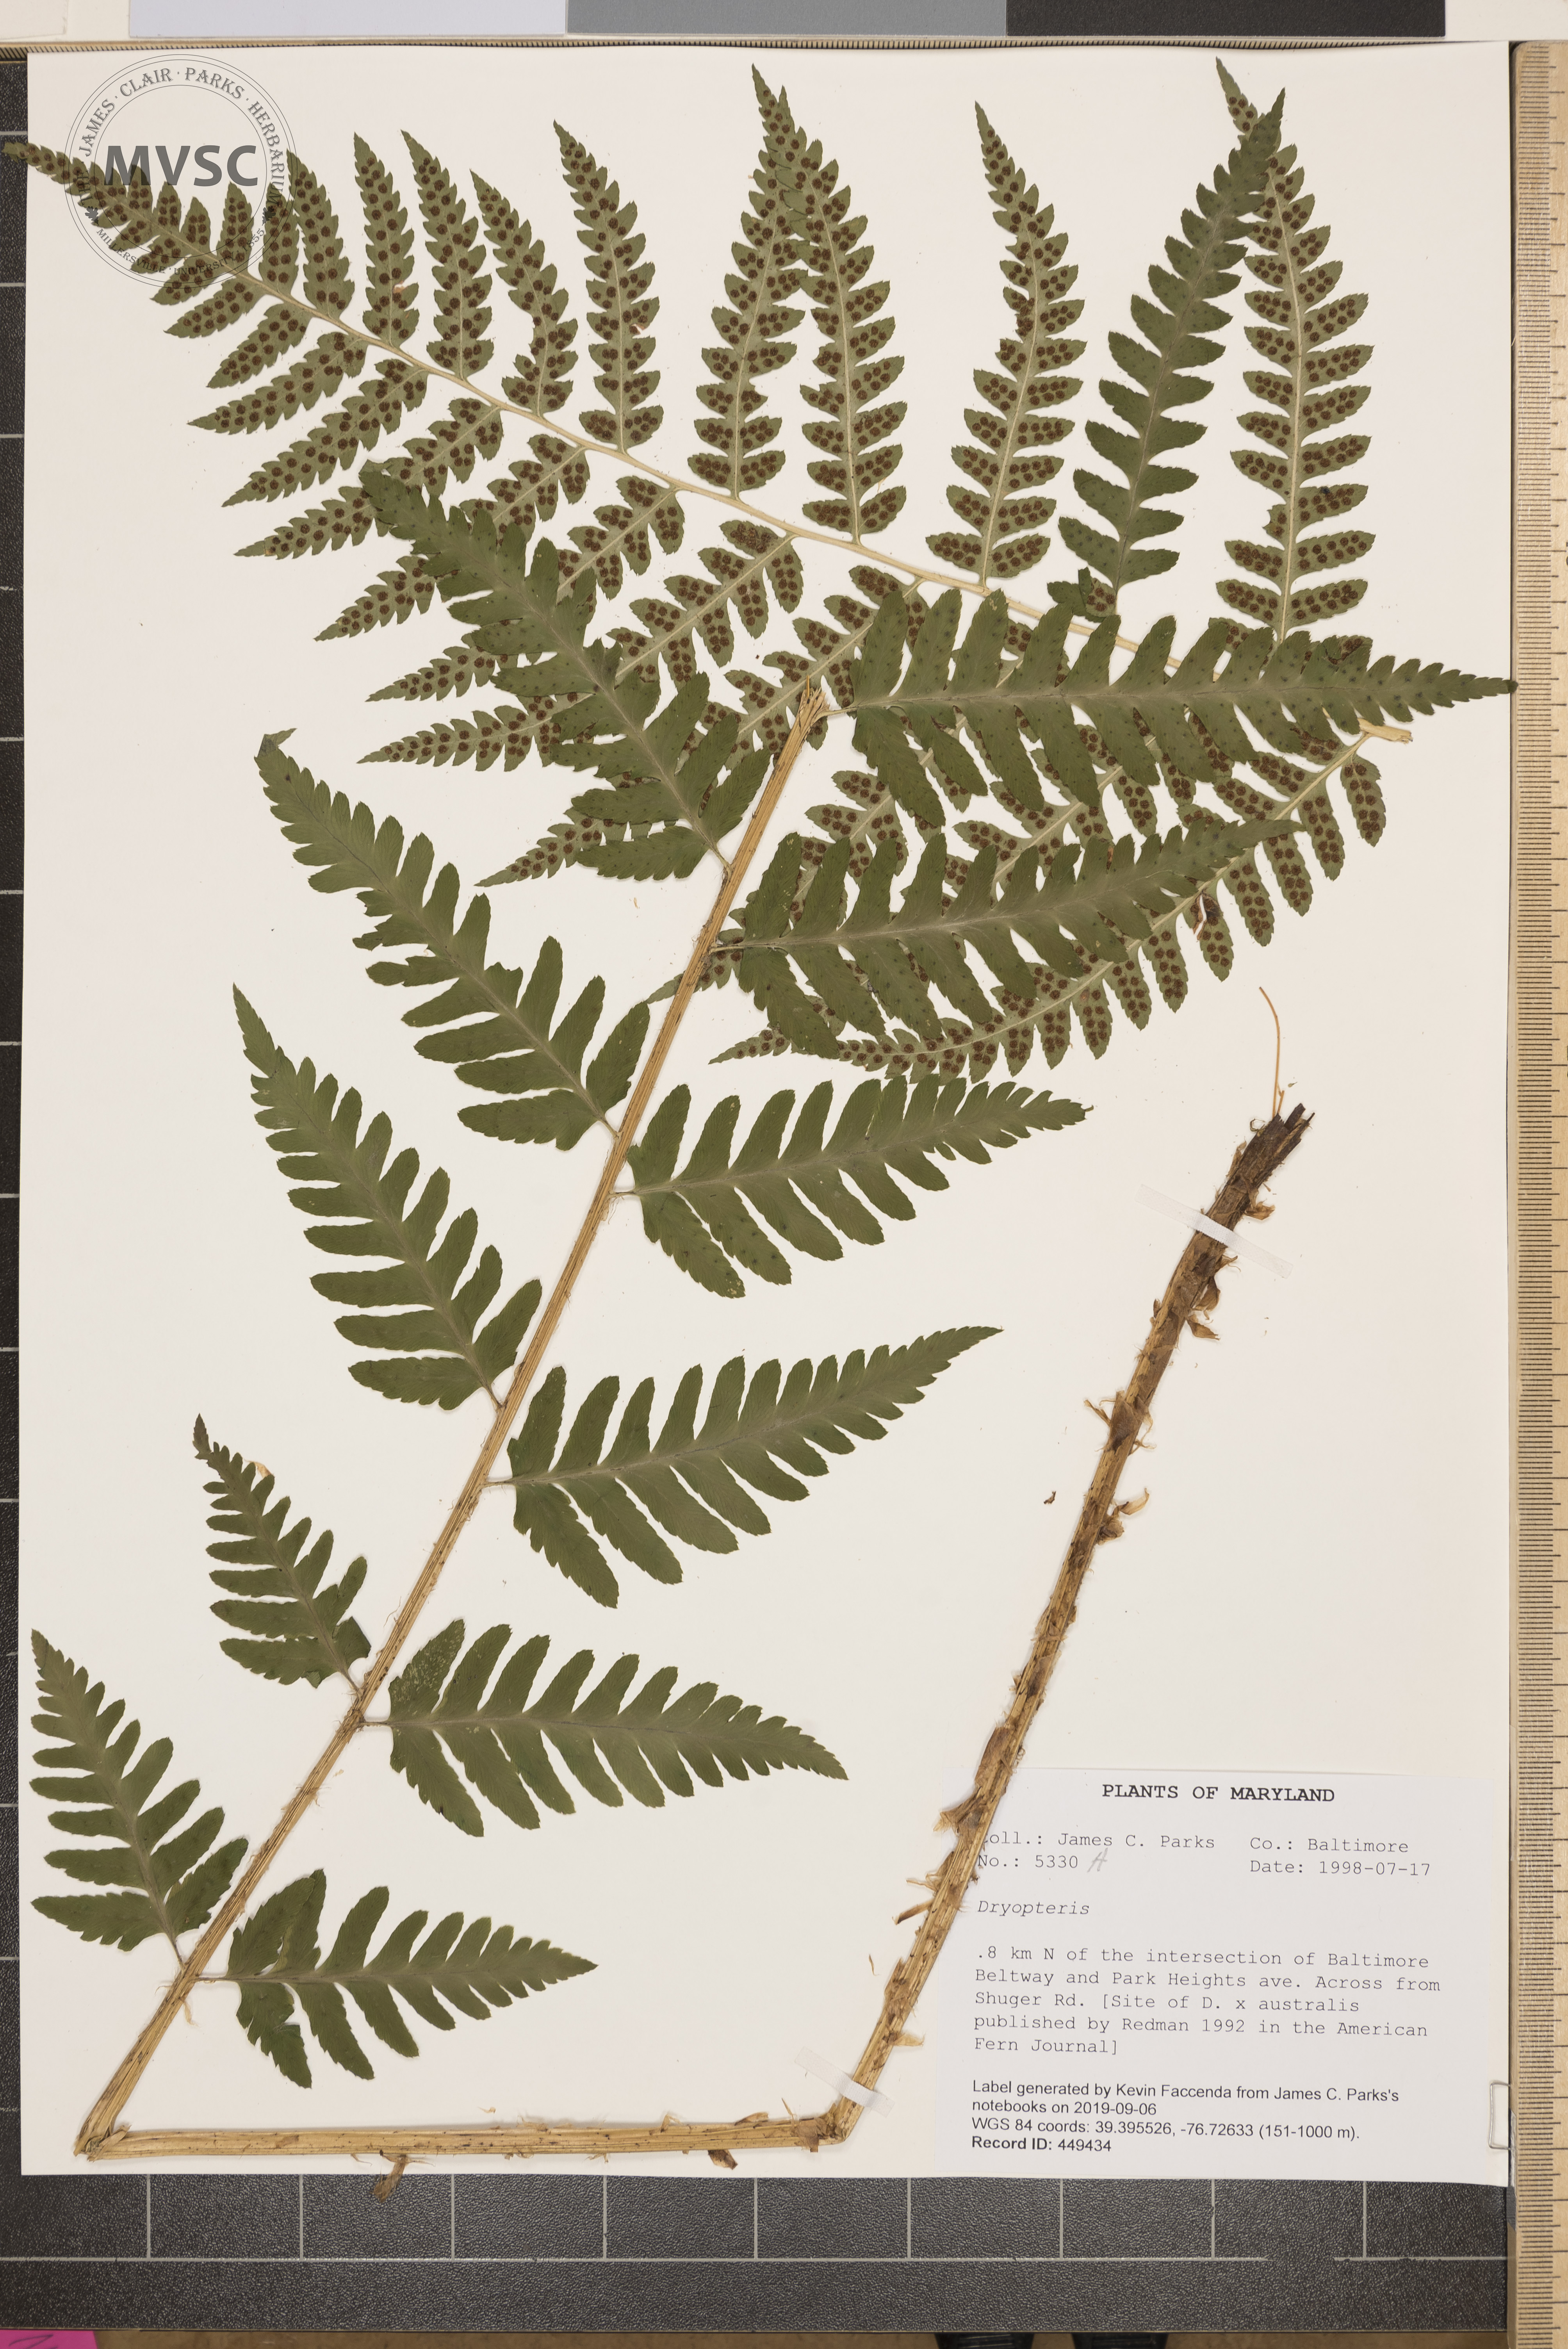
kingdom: Plantae
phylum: Tracheophyta
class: Polypodiopsida
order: Polypodiales
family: Dryopteridaceae
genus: Dryopteris
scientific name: Dryopteris celsa
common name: Log fern
